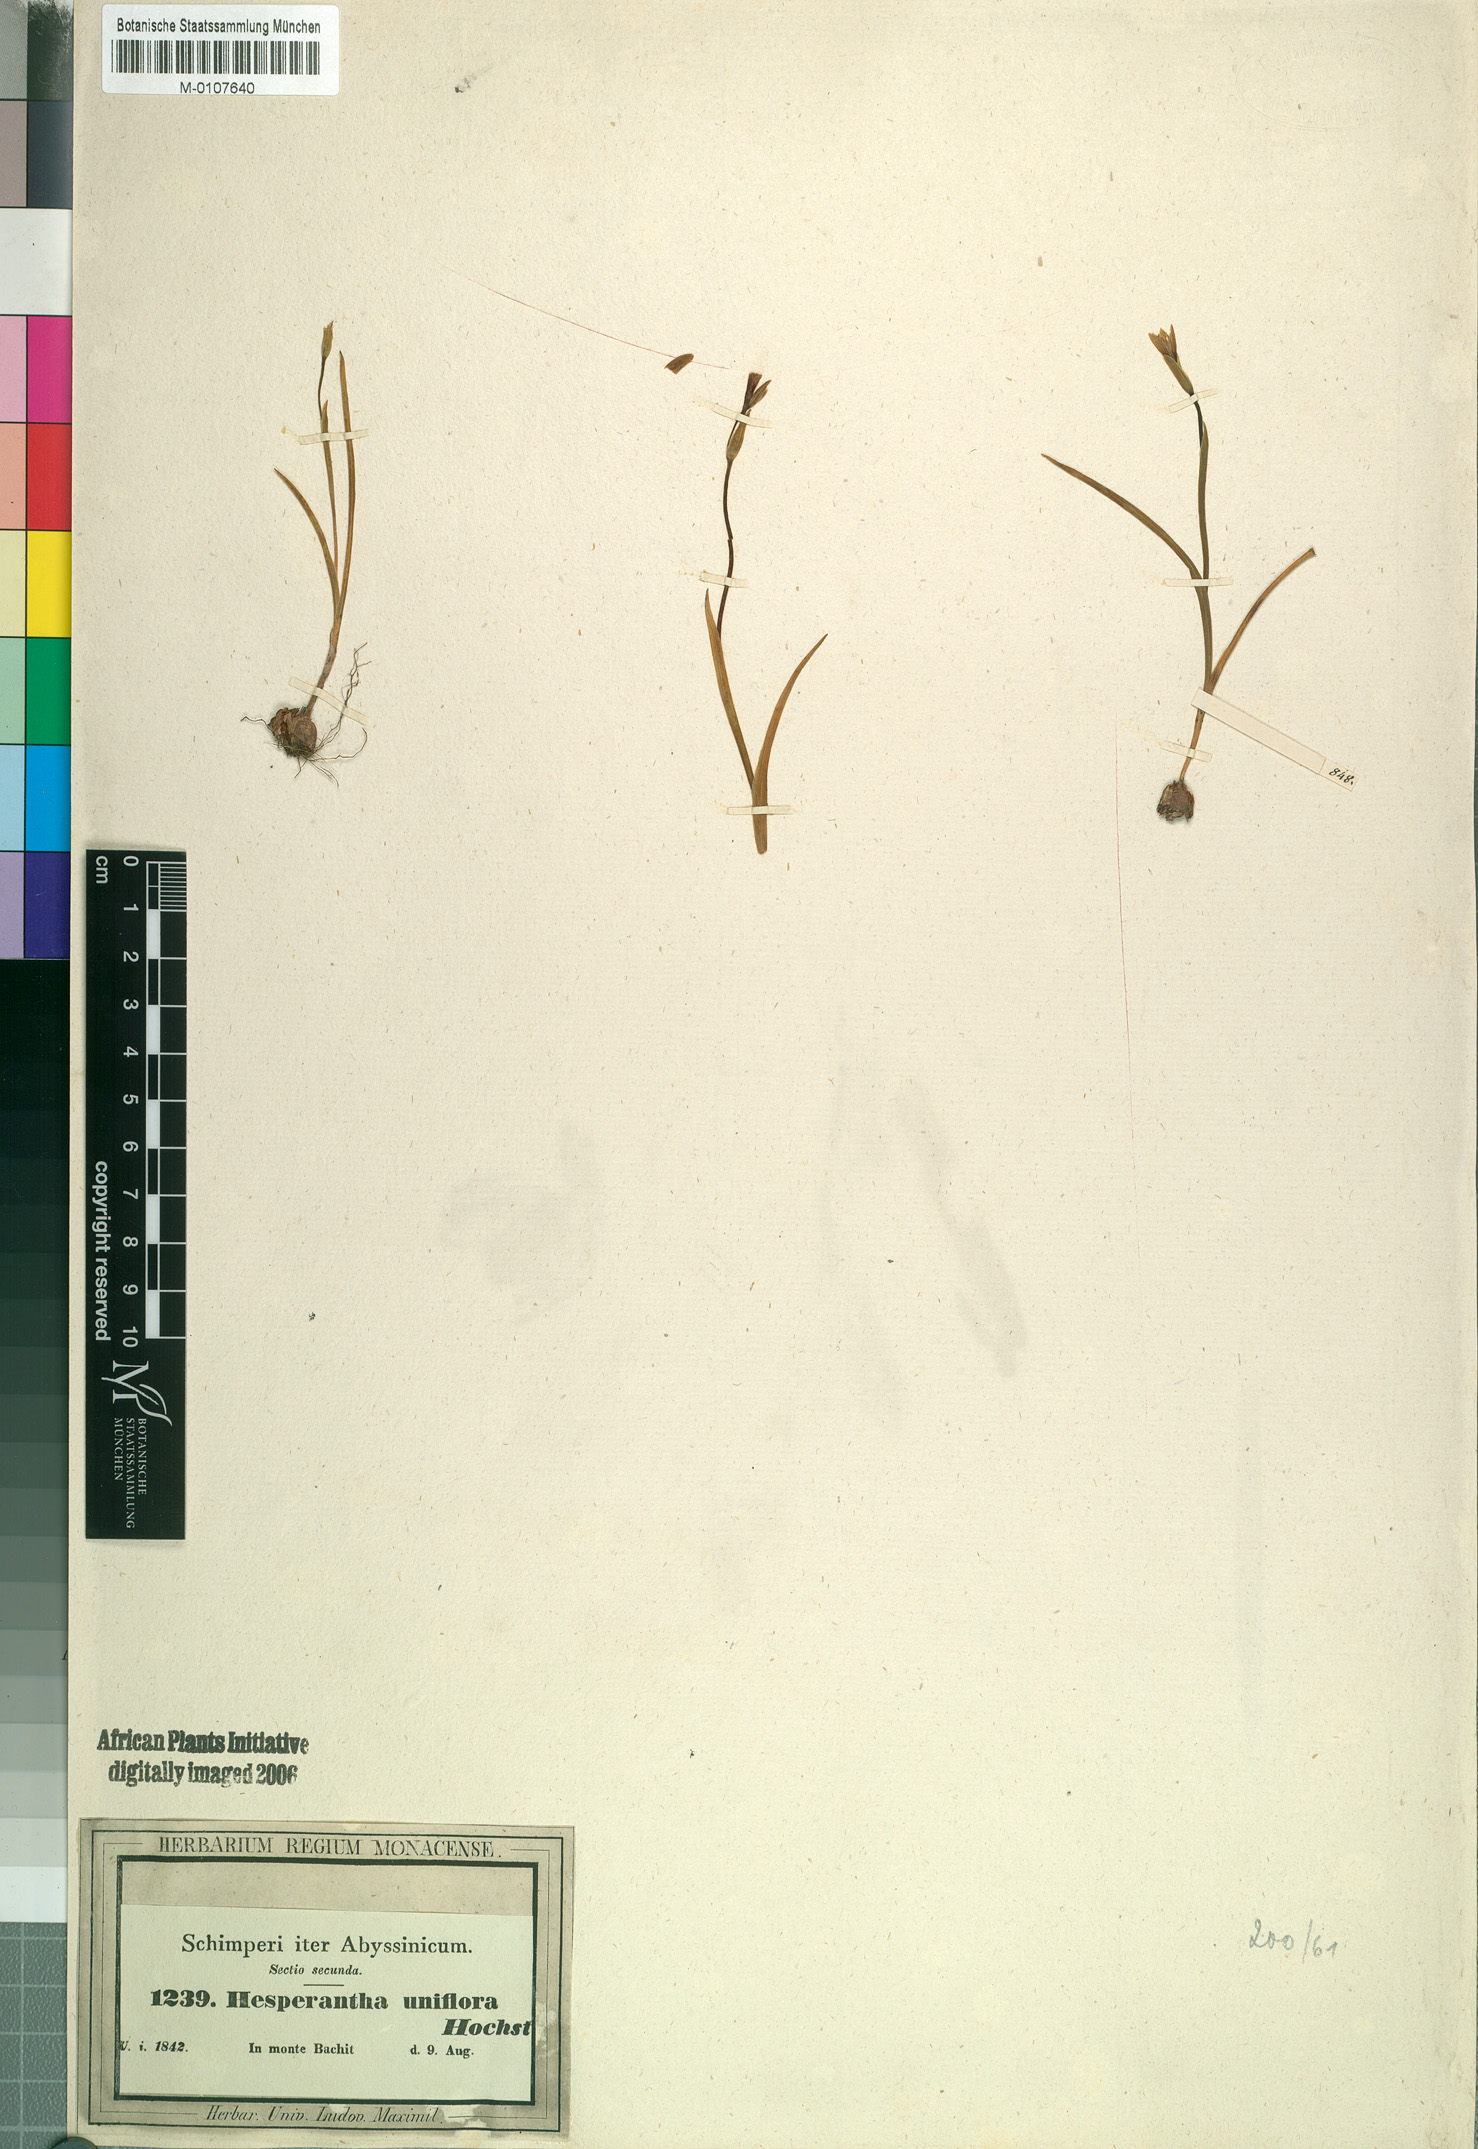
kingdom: Plantae
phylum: Tracheophyta
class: Liliopsida
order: Asparagales
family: Iridaceae
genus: Hesperantha
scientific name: Hesperantha petitiana
